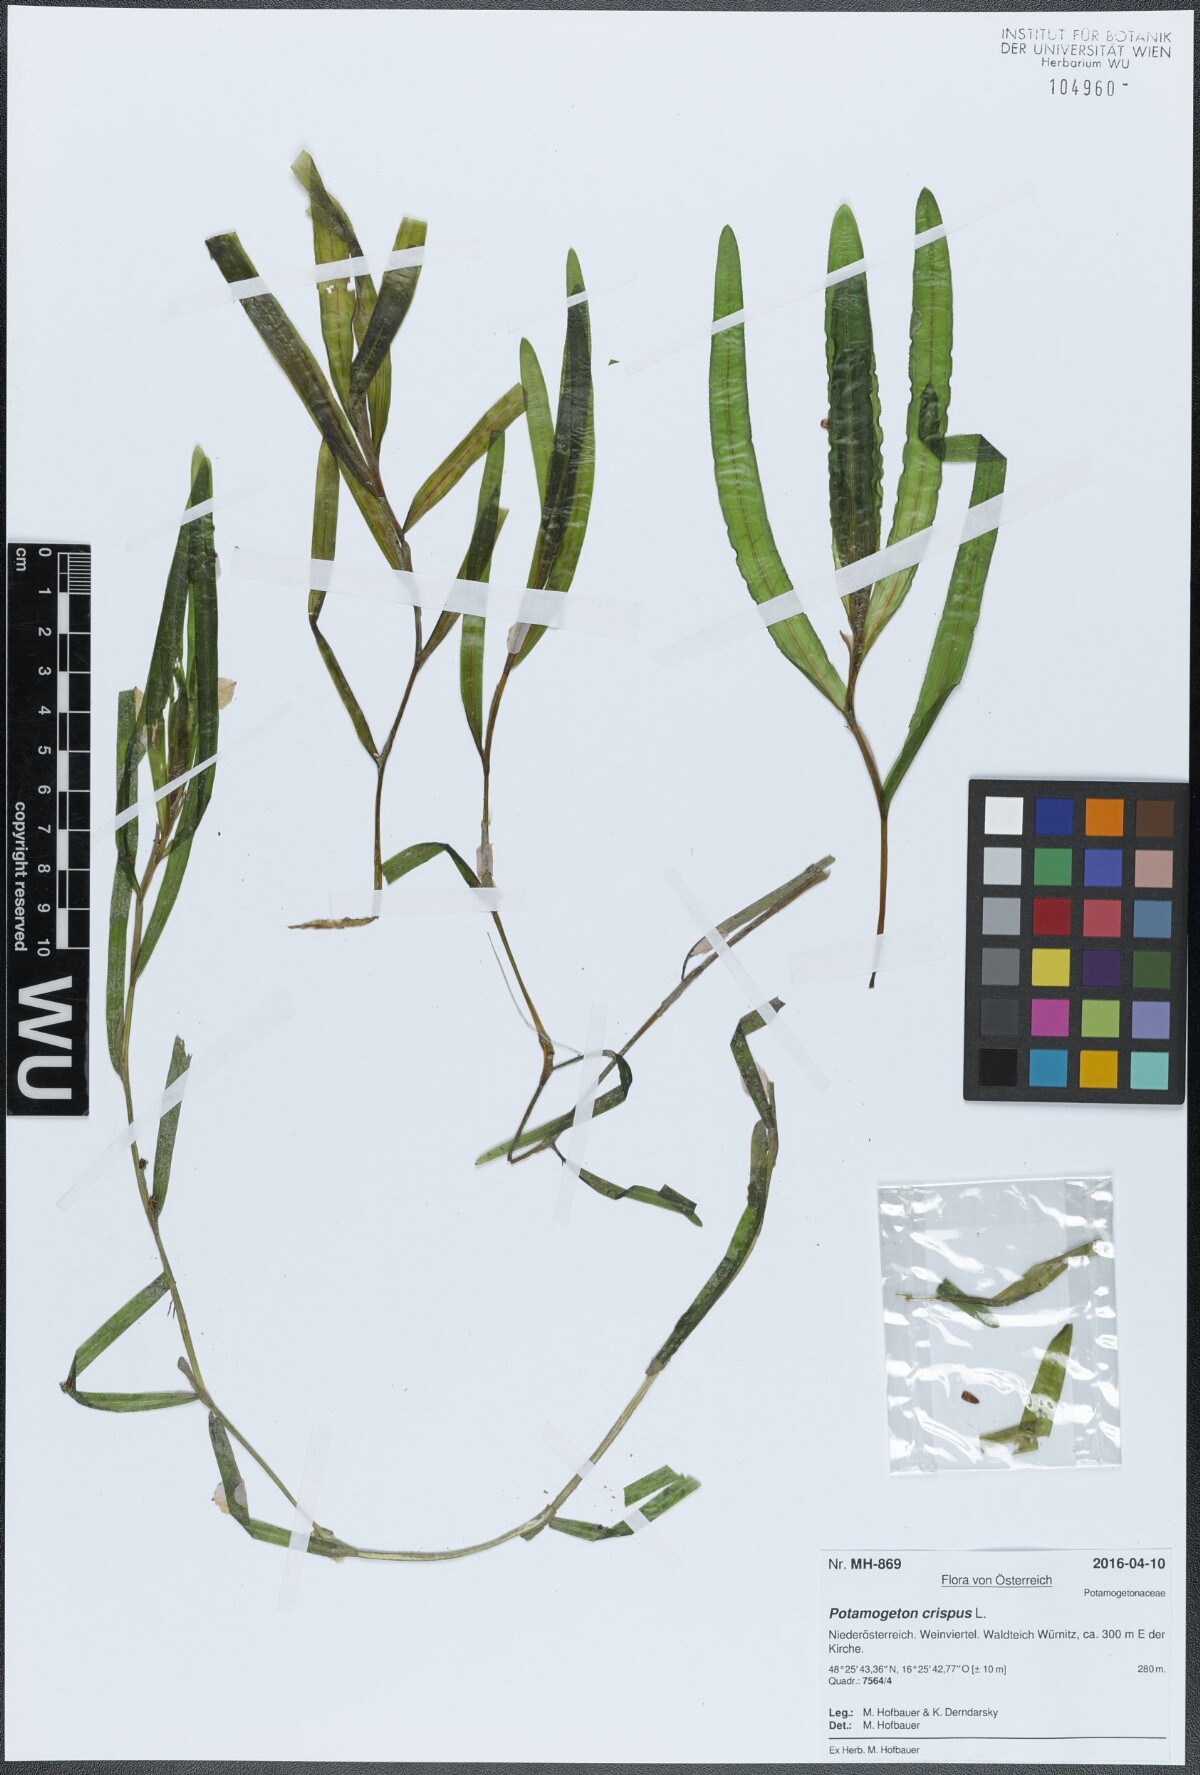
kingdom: Plantae
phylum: Tracheophyta
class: Liliopsida
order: Alismatales
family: Potamogetonaceae
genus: Potamogeton
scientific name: Potamogeton crispus
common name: Curled pondweed
